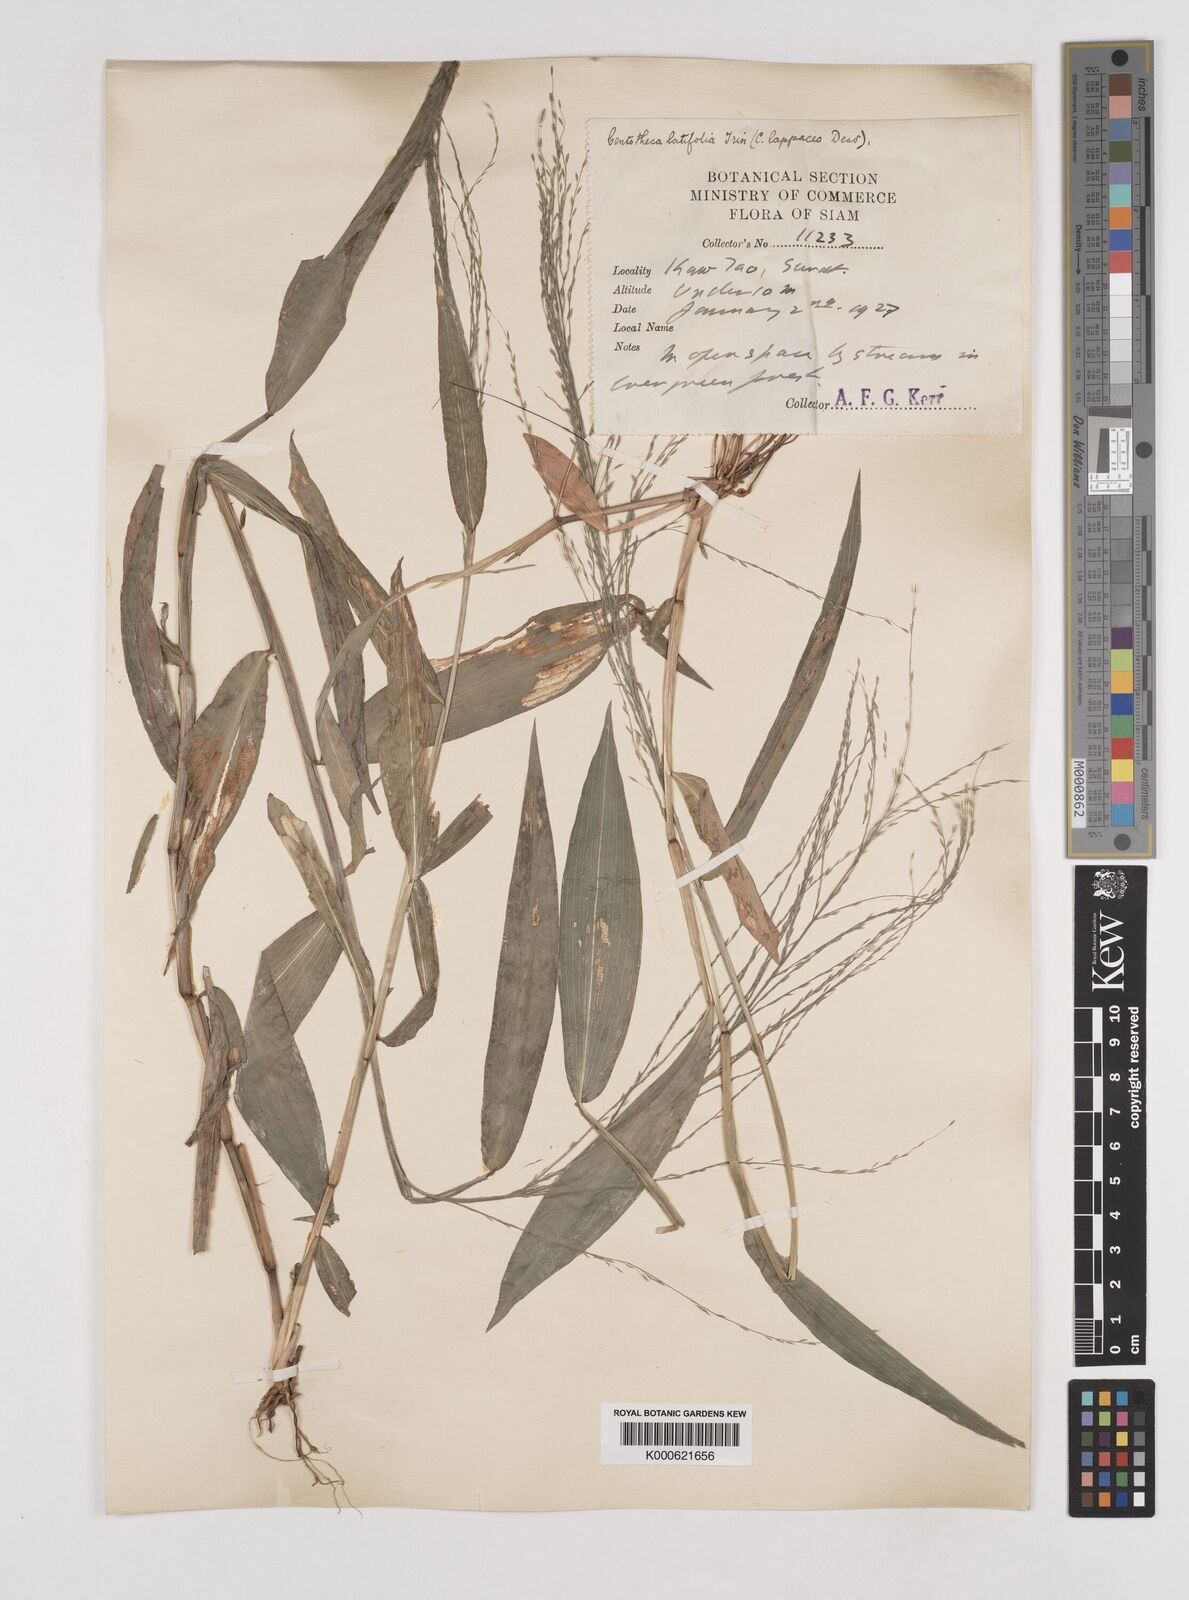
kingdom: Plantae
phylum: Tracheophyta
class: Liliopsida
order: Poales
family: Poaceae
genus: Centotheca
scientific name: Centotheca lappacea
